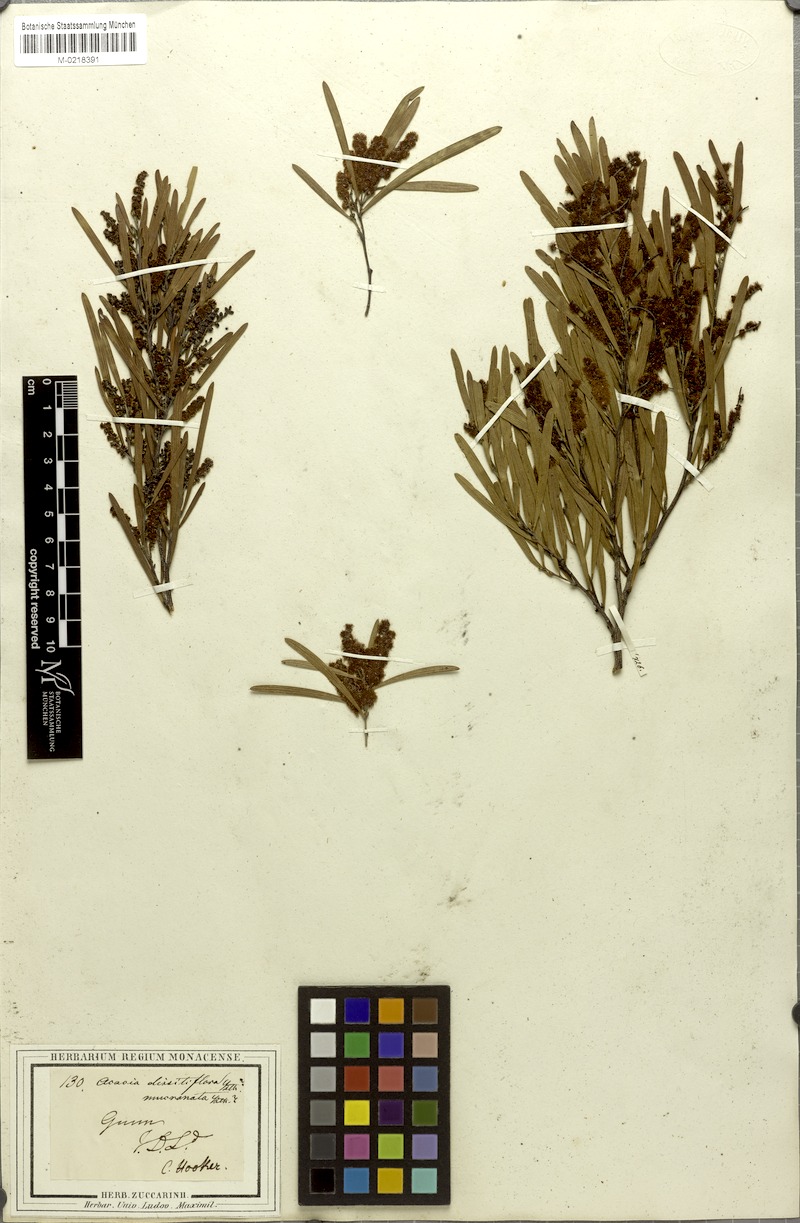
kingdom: Plantae
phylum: Tracheophyta
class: Magnoliopsida
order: Fabales
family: Fabaceae
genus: Acacia
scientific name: Acacia mucronata
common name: Variable sallow wattle
